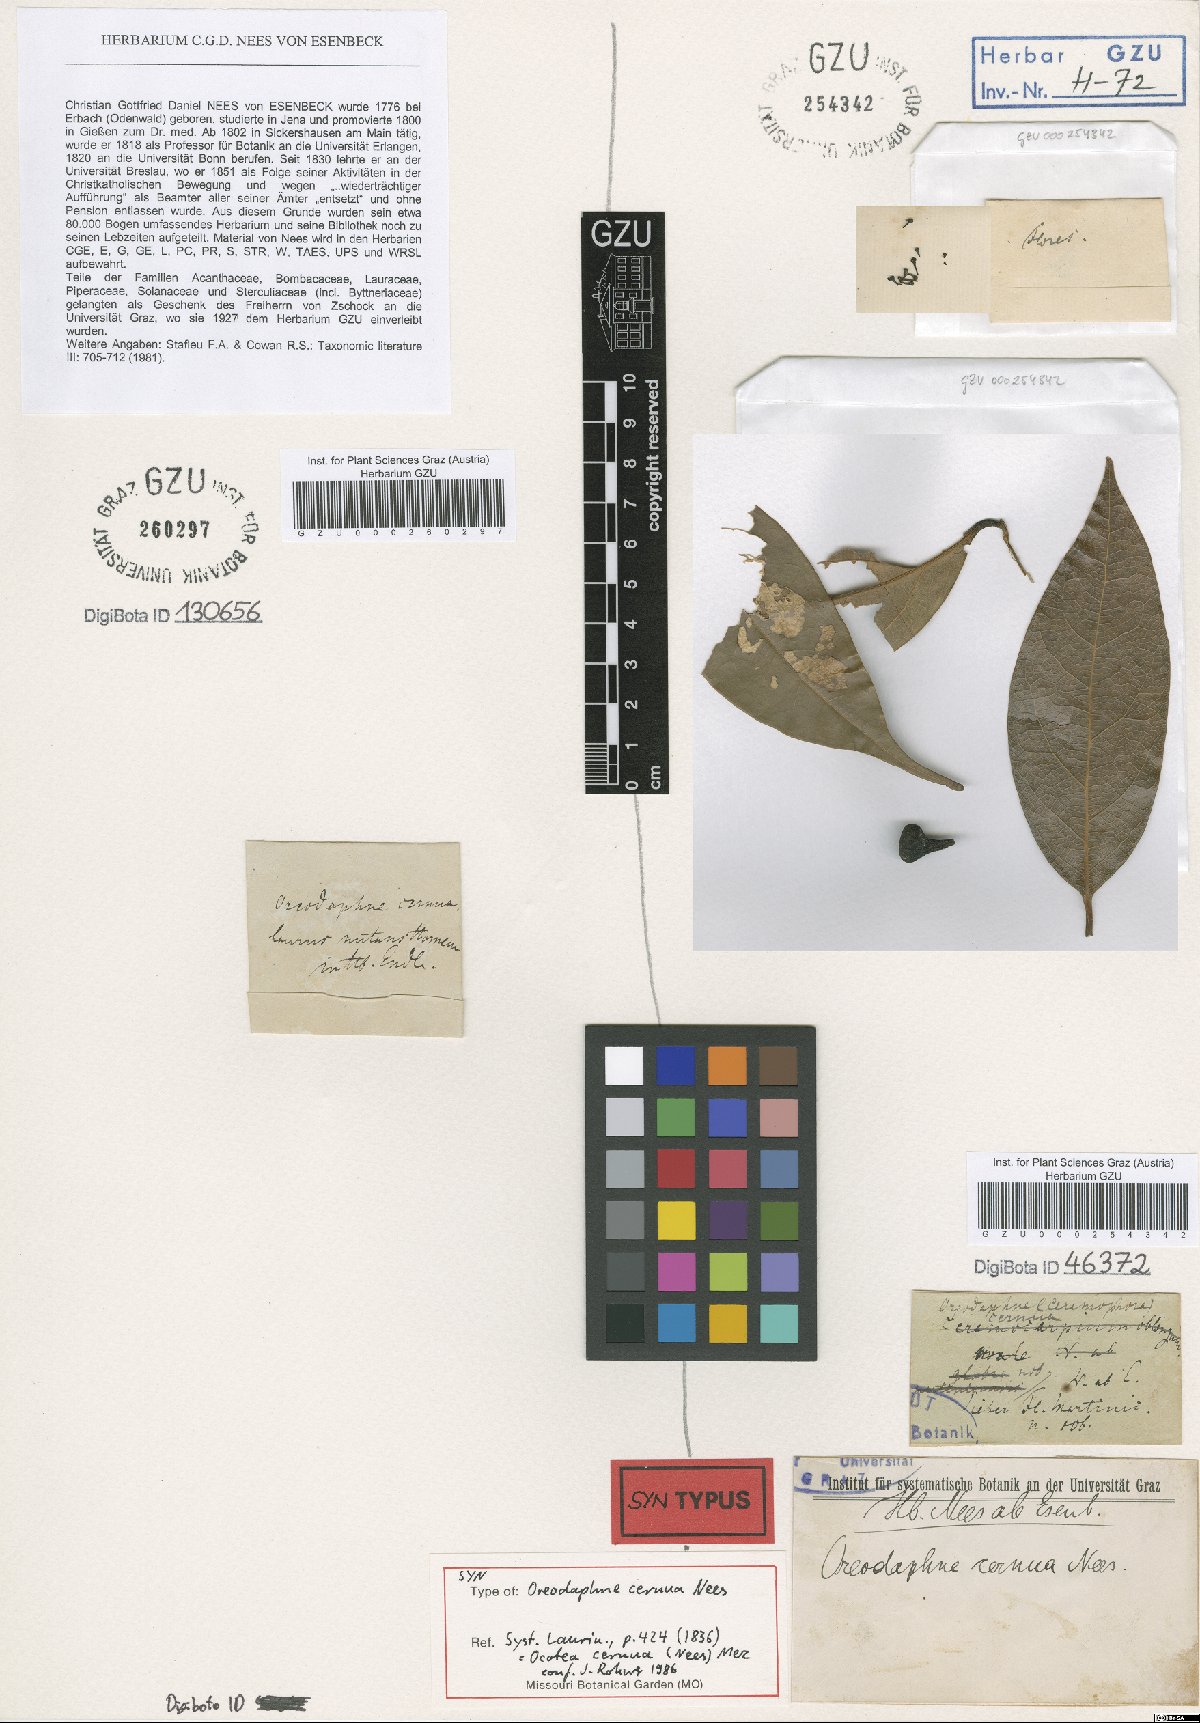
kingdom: Plantae
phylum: Tracheophyta
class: Magnoliopsida
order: Laurales
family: Lauraceae
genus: Ocotea
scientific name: Ocotea leptobotra
